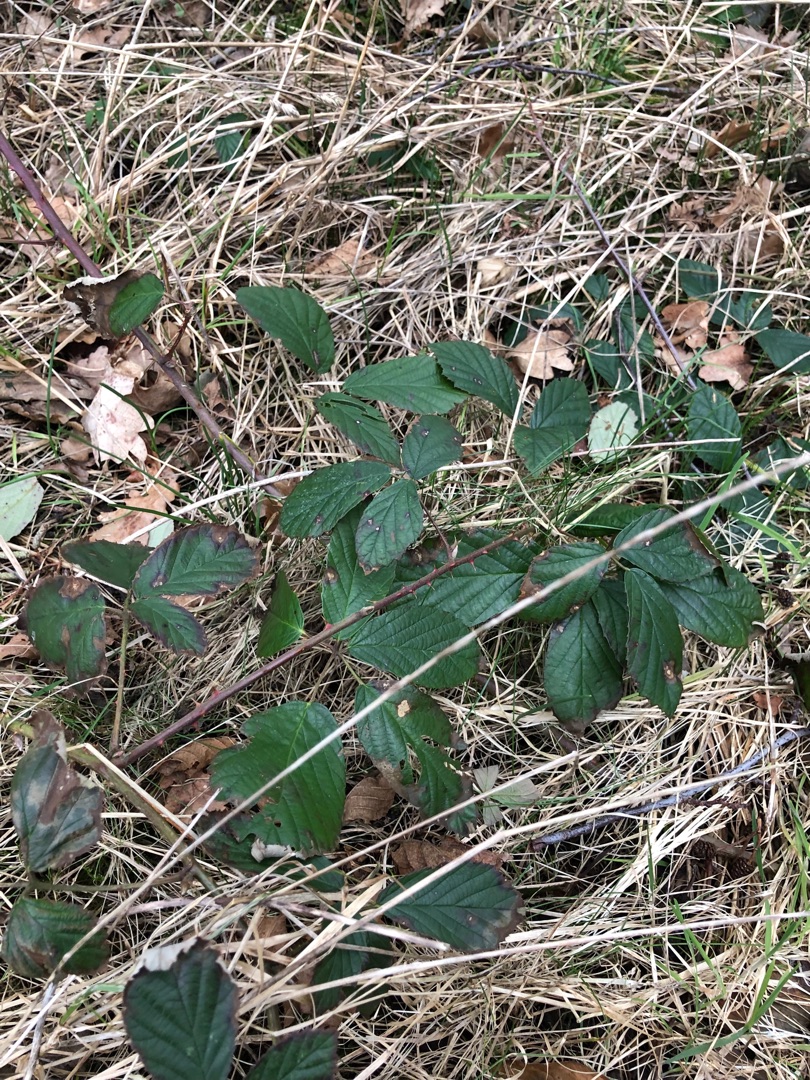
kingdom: Plantae
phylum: Tracheophyta
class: Magnoliopsida
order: Rosales
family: Rosaceae
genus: Rubus
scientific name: Rubus radula
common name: Rasperu brombær
